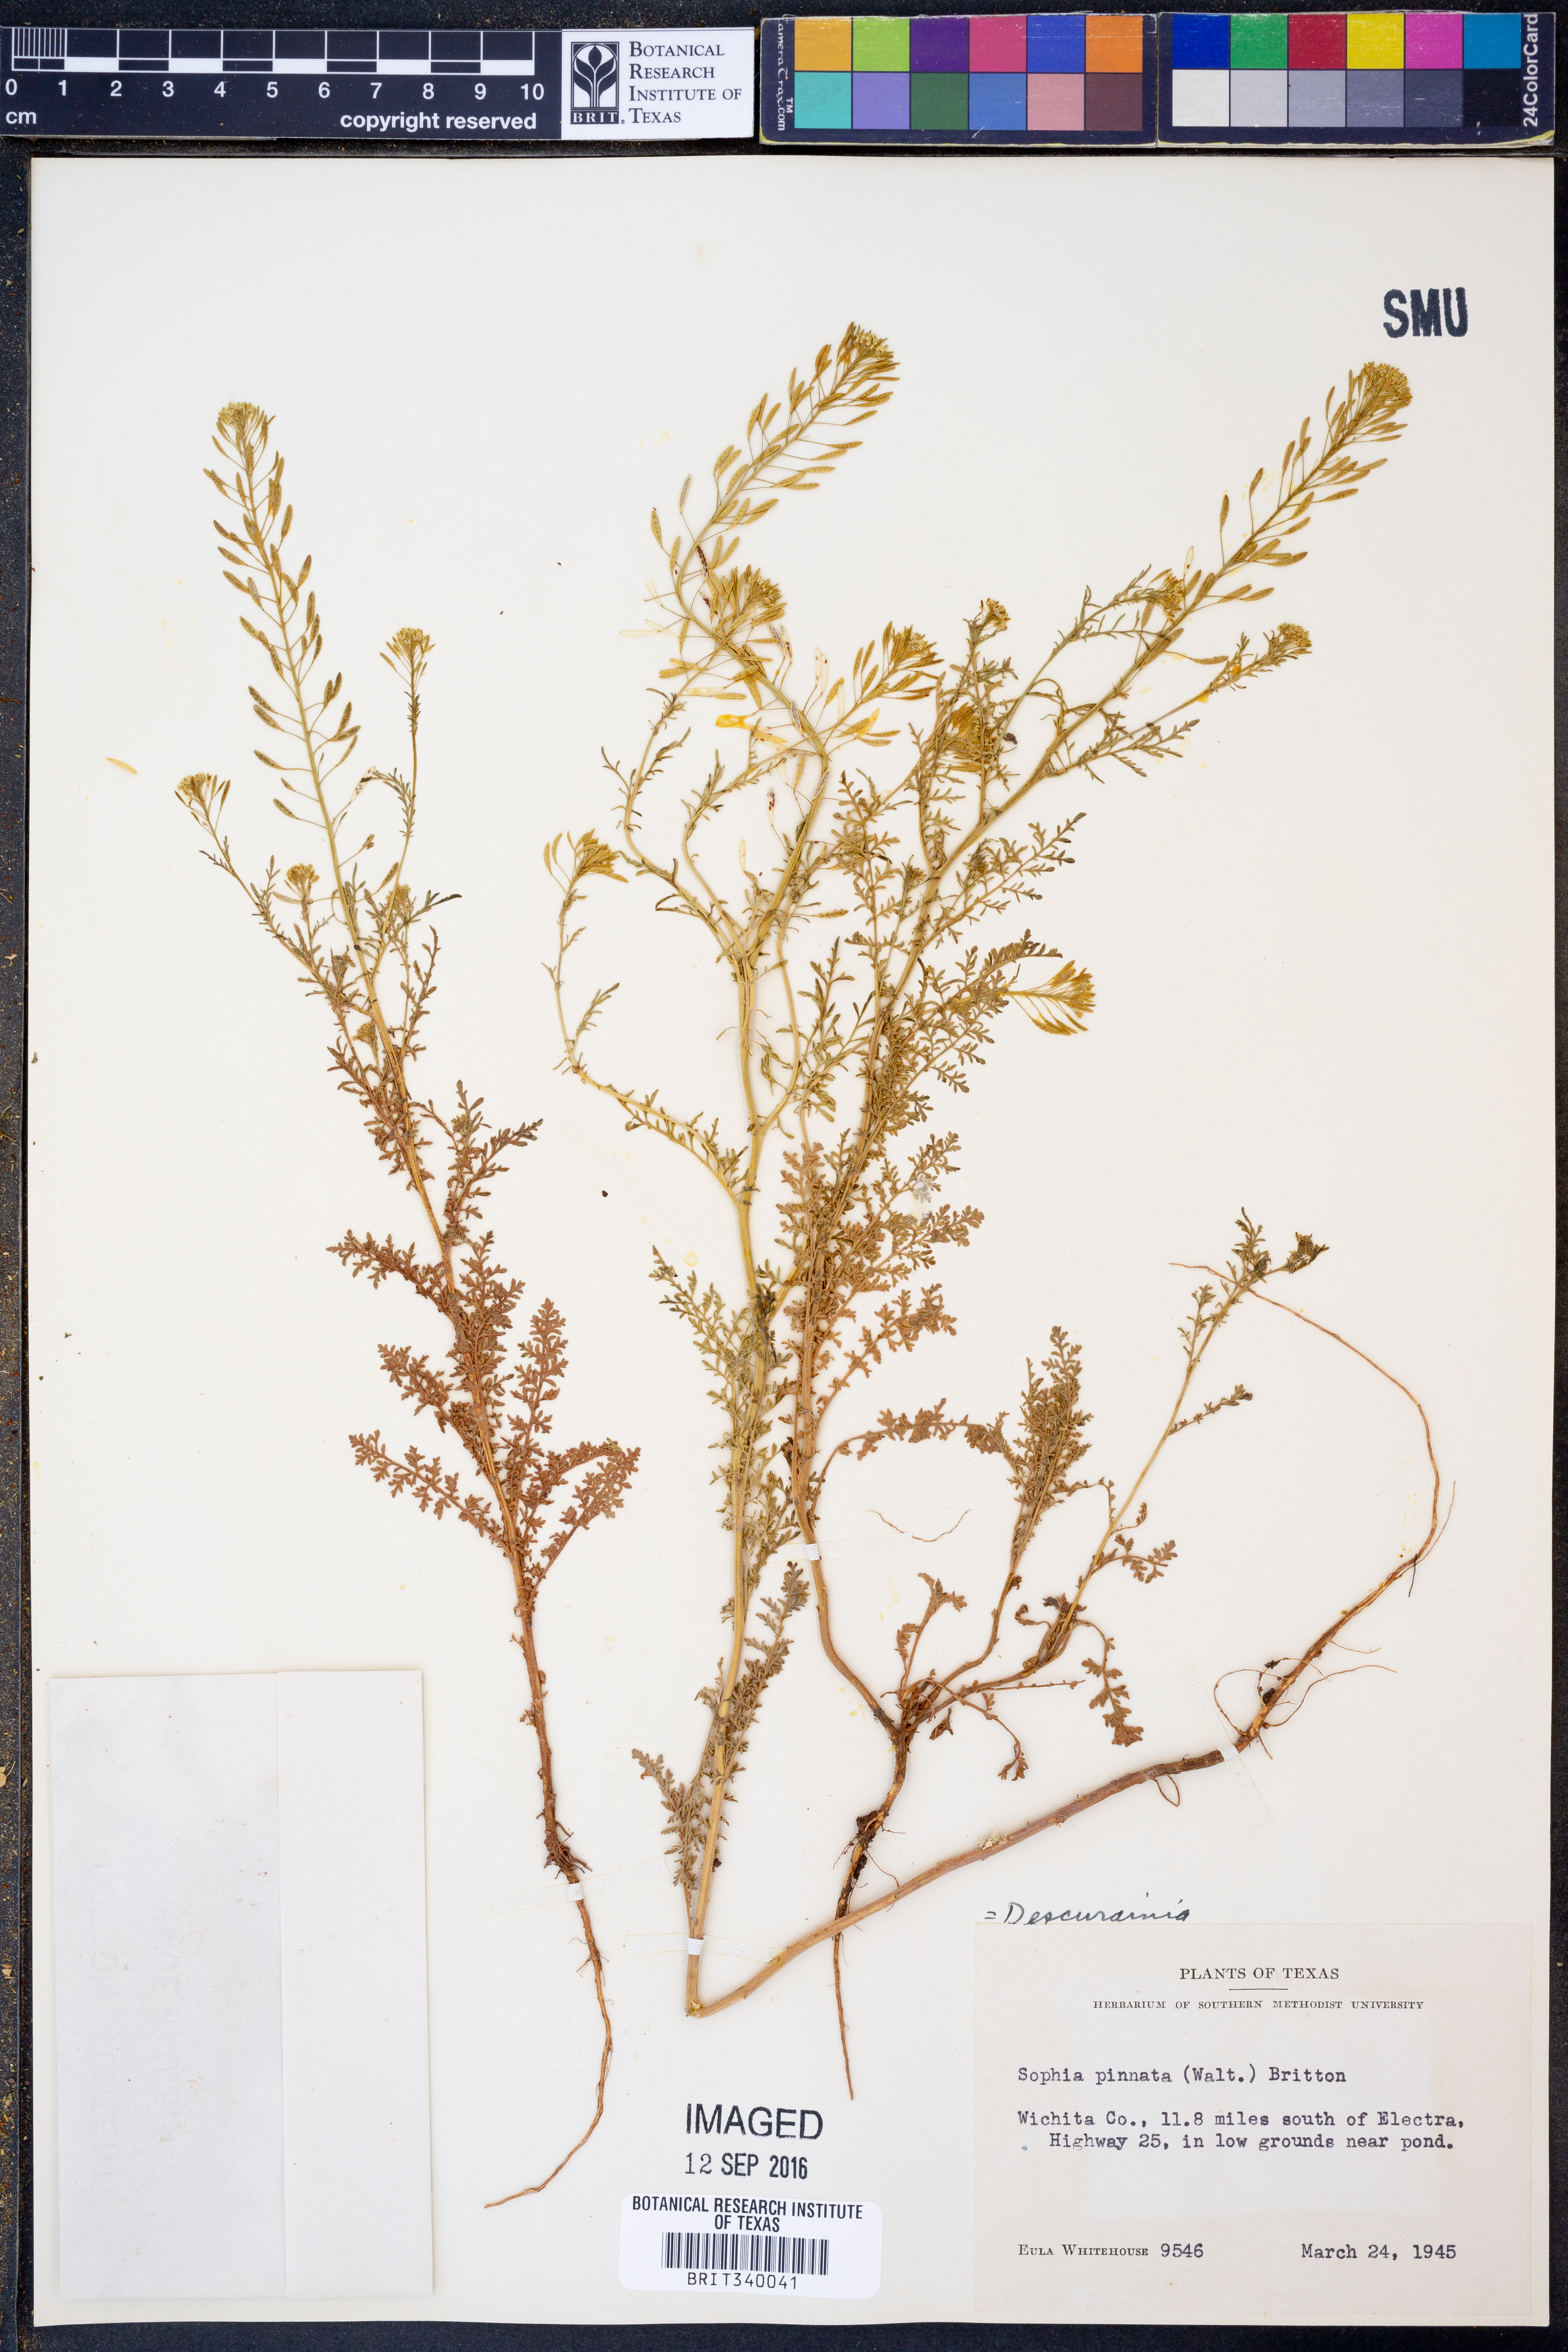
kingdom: Plantae
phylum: Tracheophyta
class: Magnoliopsida
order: Brassicales
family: Brassicaceae
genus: Descurainia
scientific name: Descurainia pinnata
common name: Western tansy mustard
